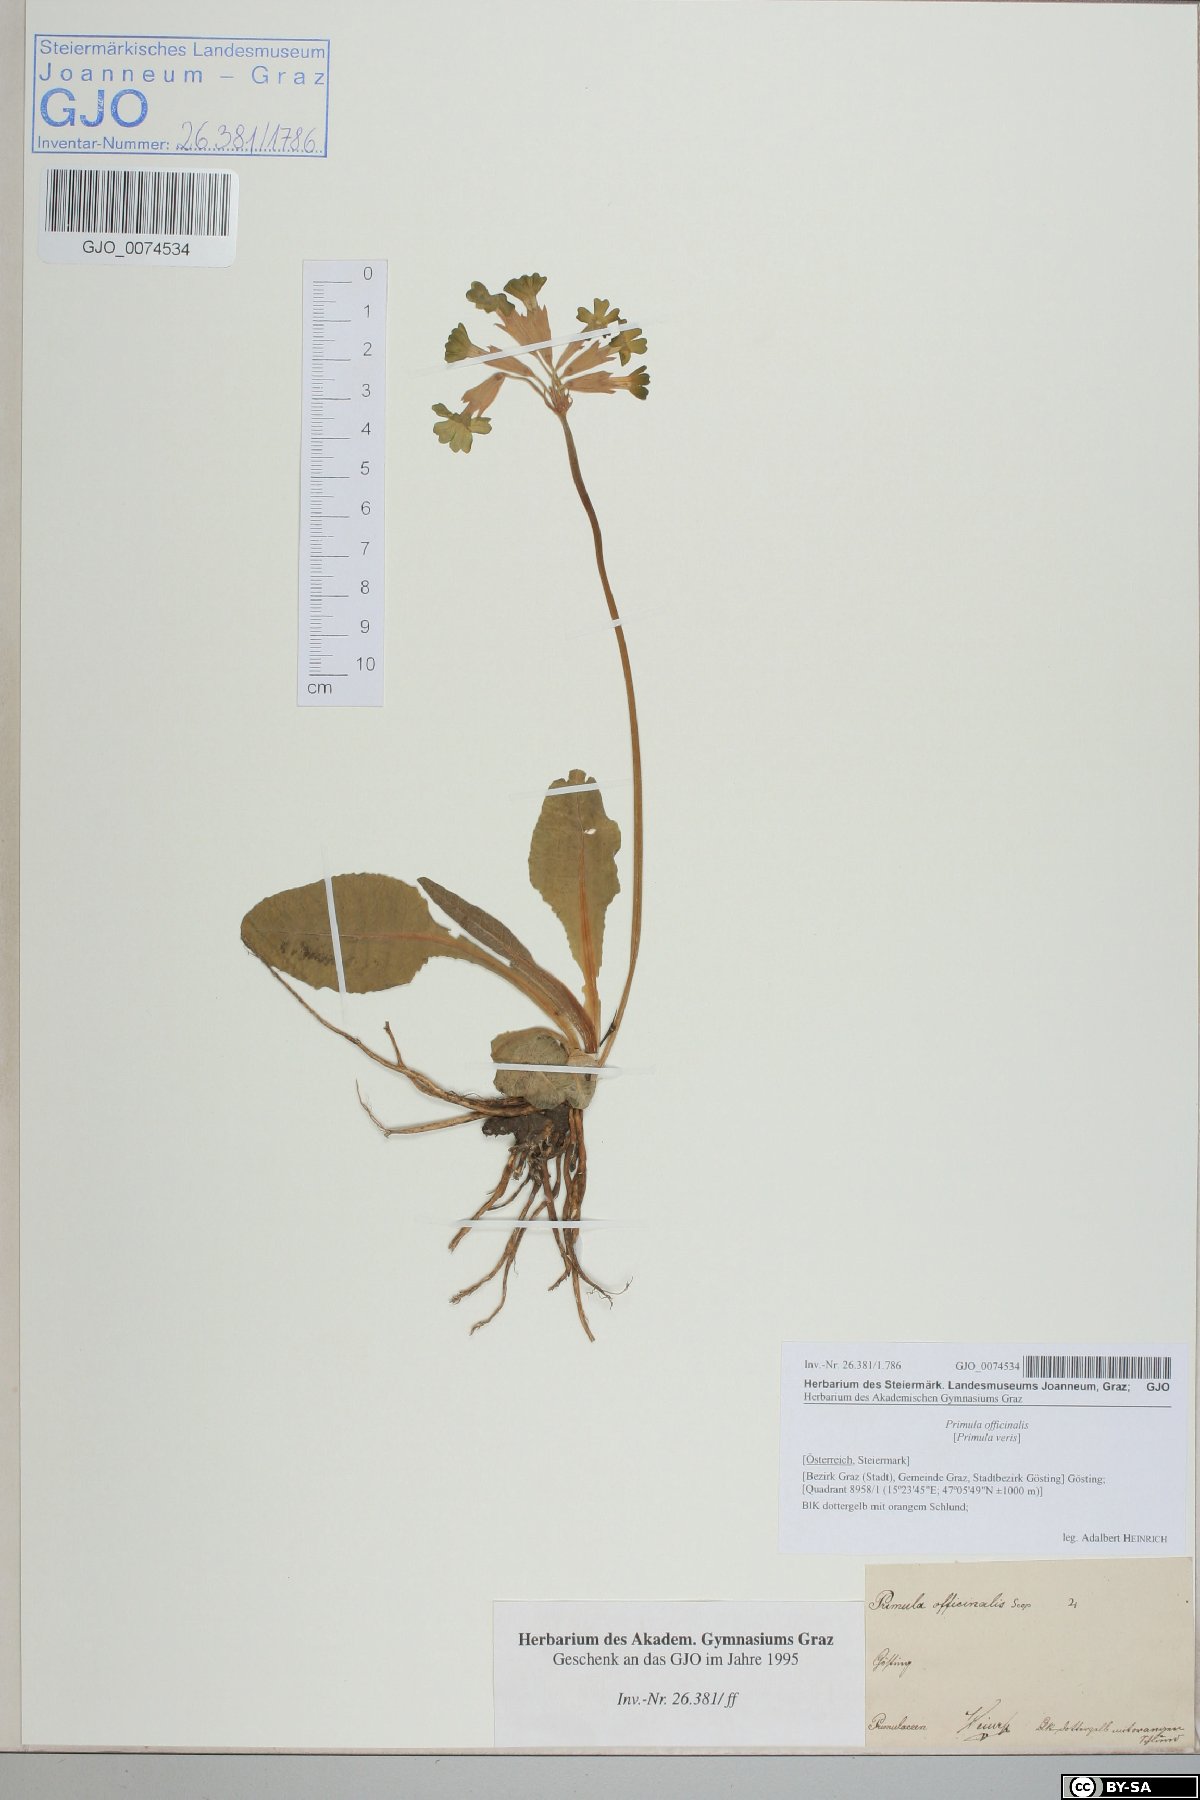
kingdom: Plantae
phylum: Tracheophyta
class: Magnoliopsida
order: Ericales
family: Primulaceae
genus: Primula
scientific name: Primula veris
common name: Cowslip
